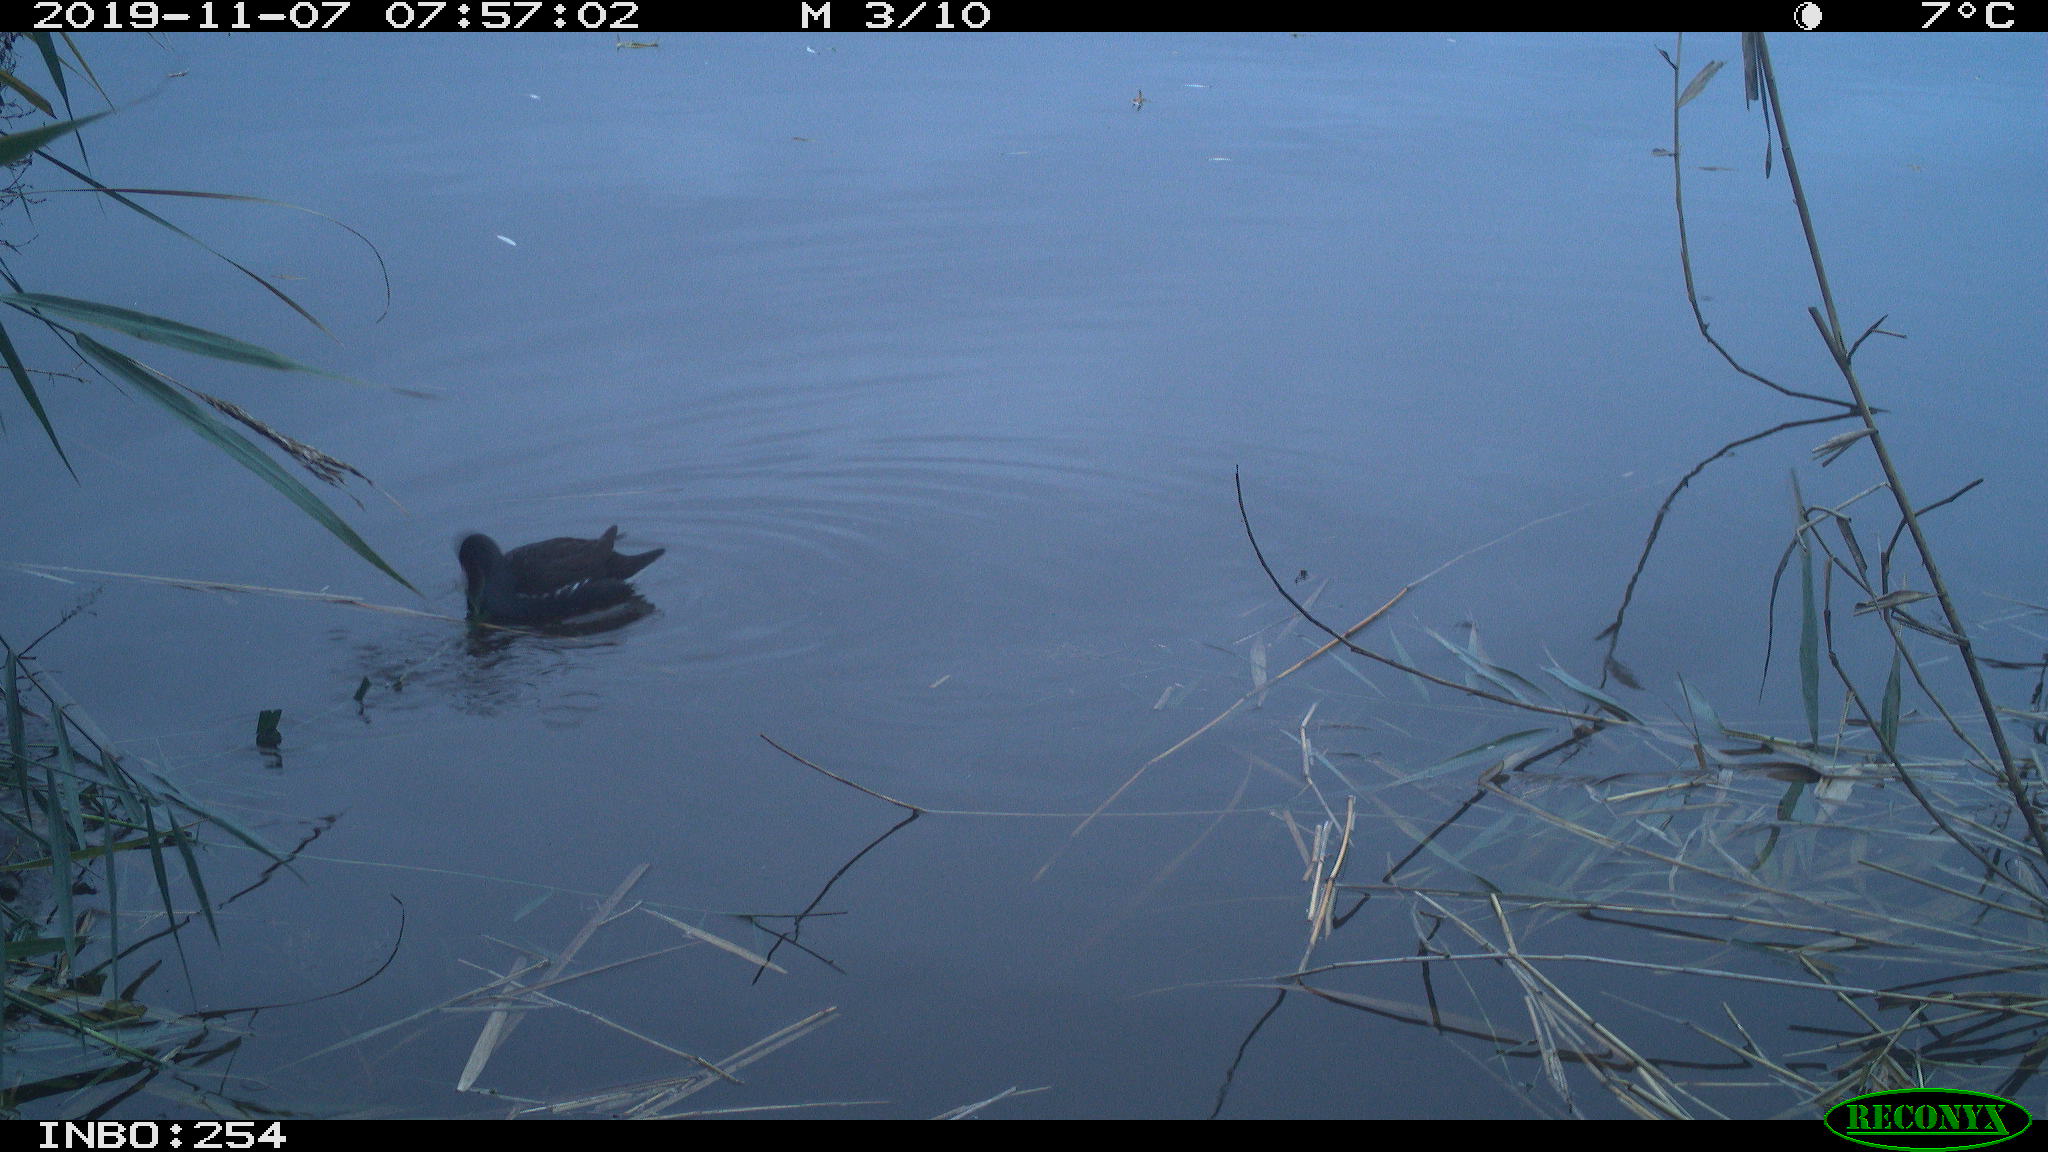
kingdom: Animalia
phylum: Chordata
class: Aves
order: Gruiformes
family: Rallidae
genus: Gallinula
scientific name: Gallinula chloropus
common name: Common moorhen
